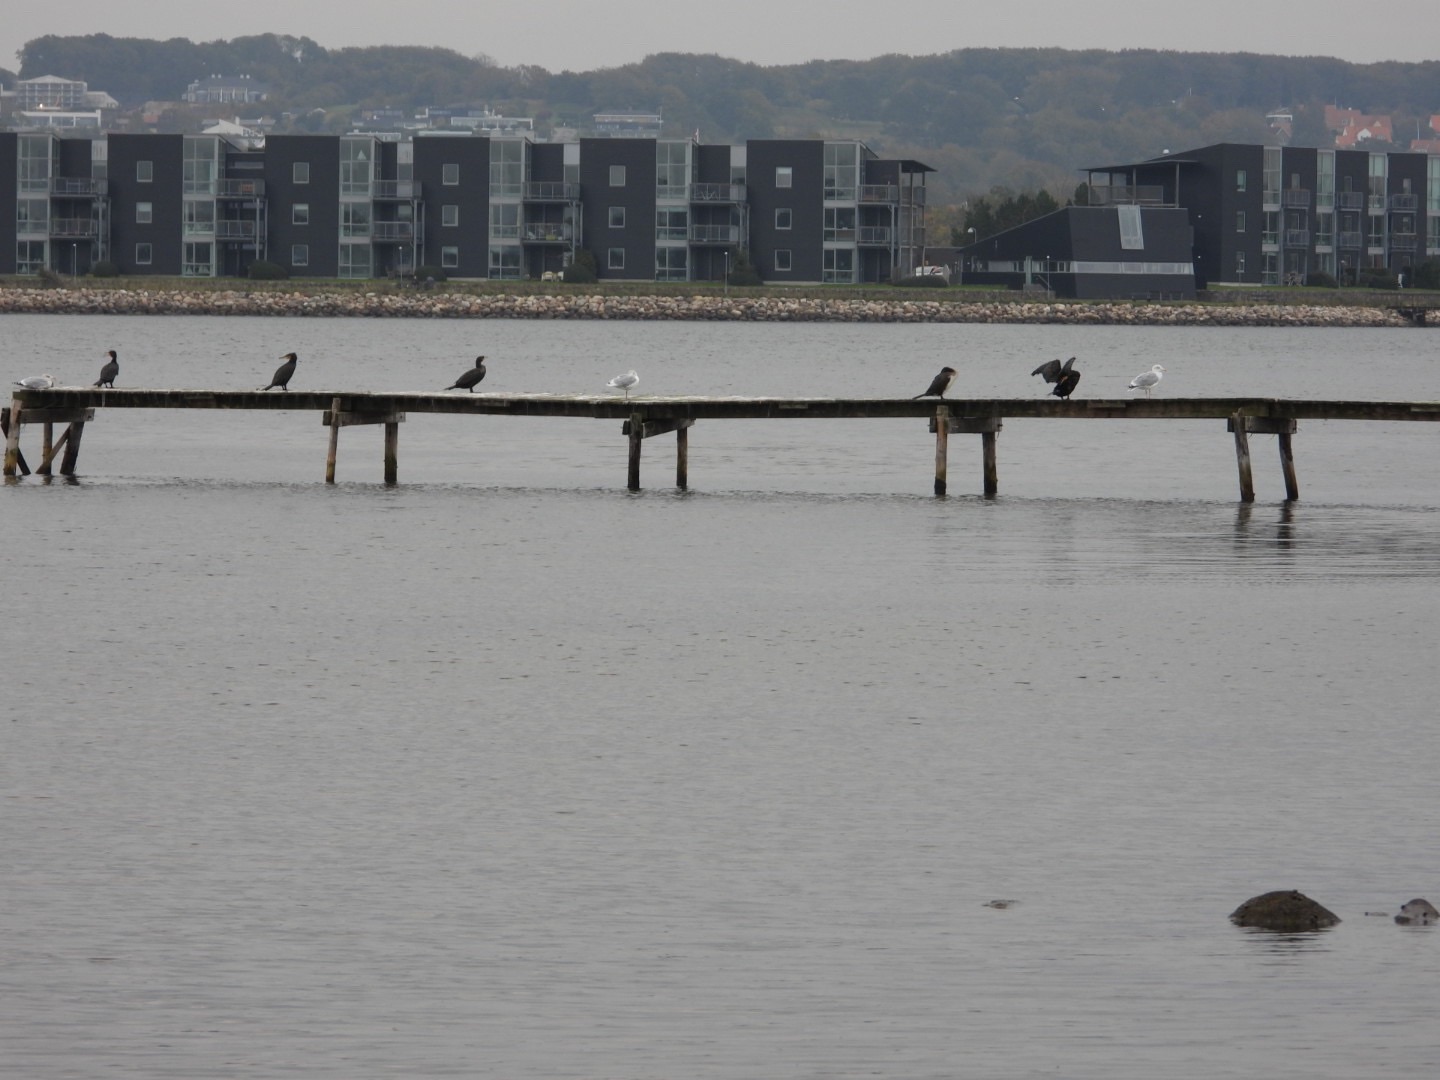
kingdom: Animalia
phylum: Chordata
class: Aves
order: Suliformes
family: Phalacrocoracidae
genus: Phalacrocorax
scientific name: Phalacrocorax carbo
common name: Skarv
